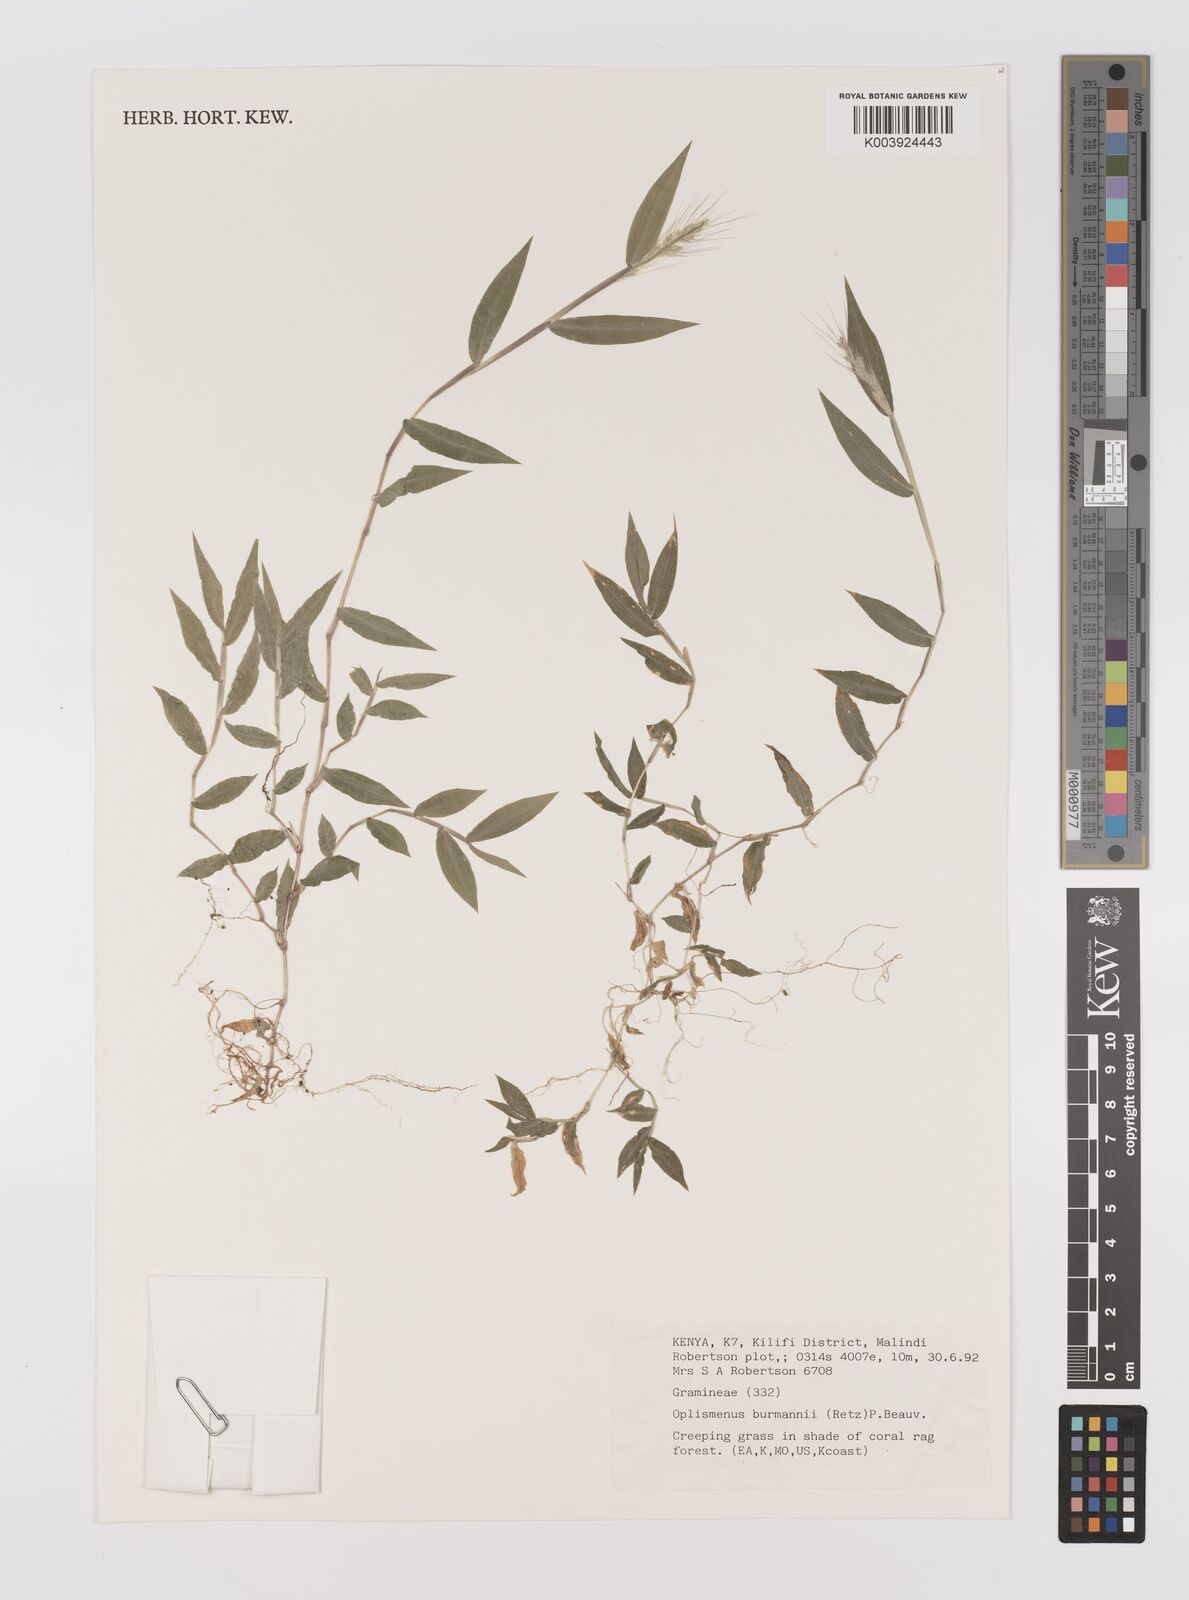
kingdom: Plantae
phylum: Tracheophyta
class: Liliopsida
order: Poales
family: Poaceae
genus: Oplismenus
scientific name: Oplismenus burmanni
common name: Burmann's basketgrass
